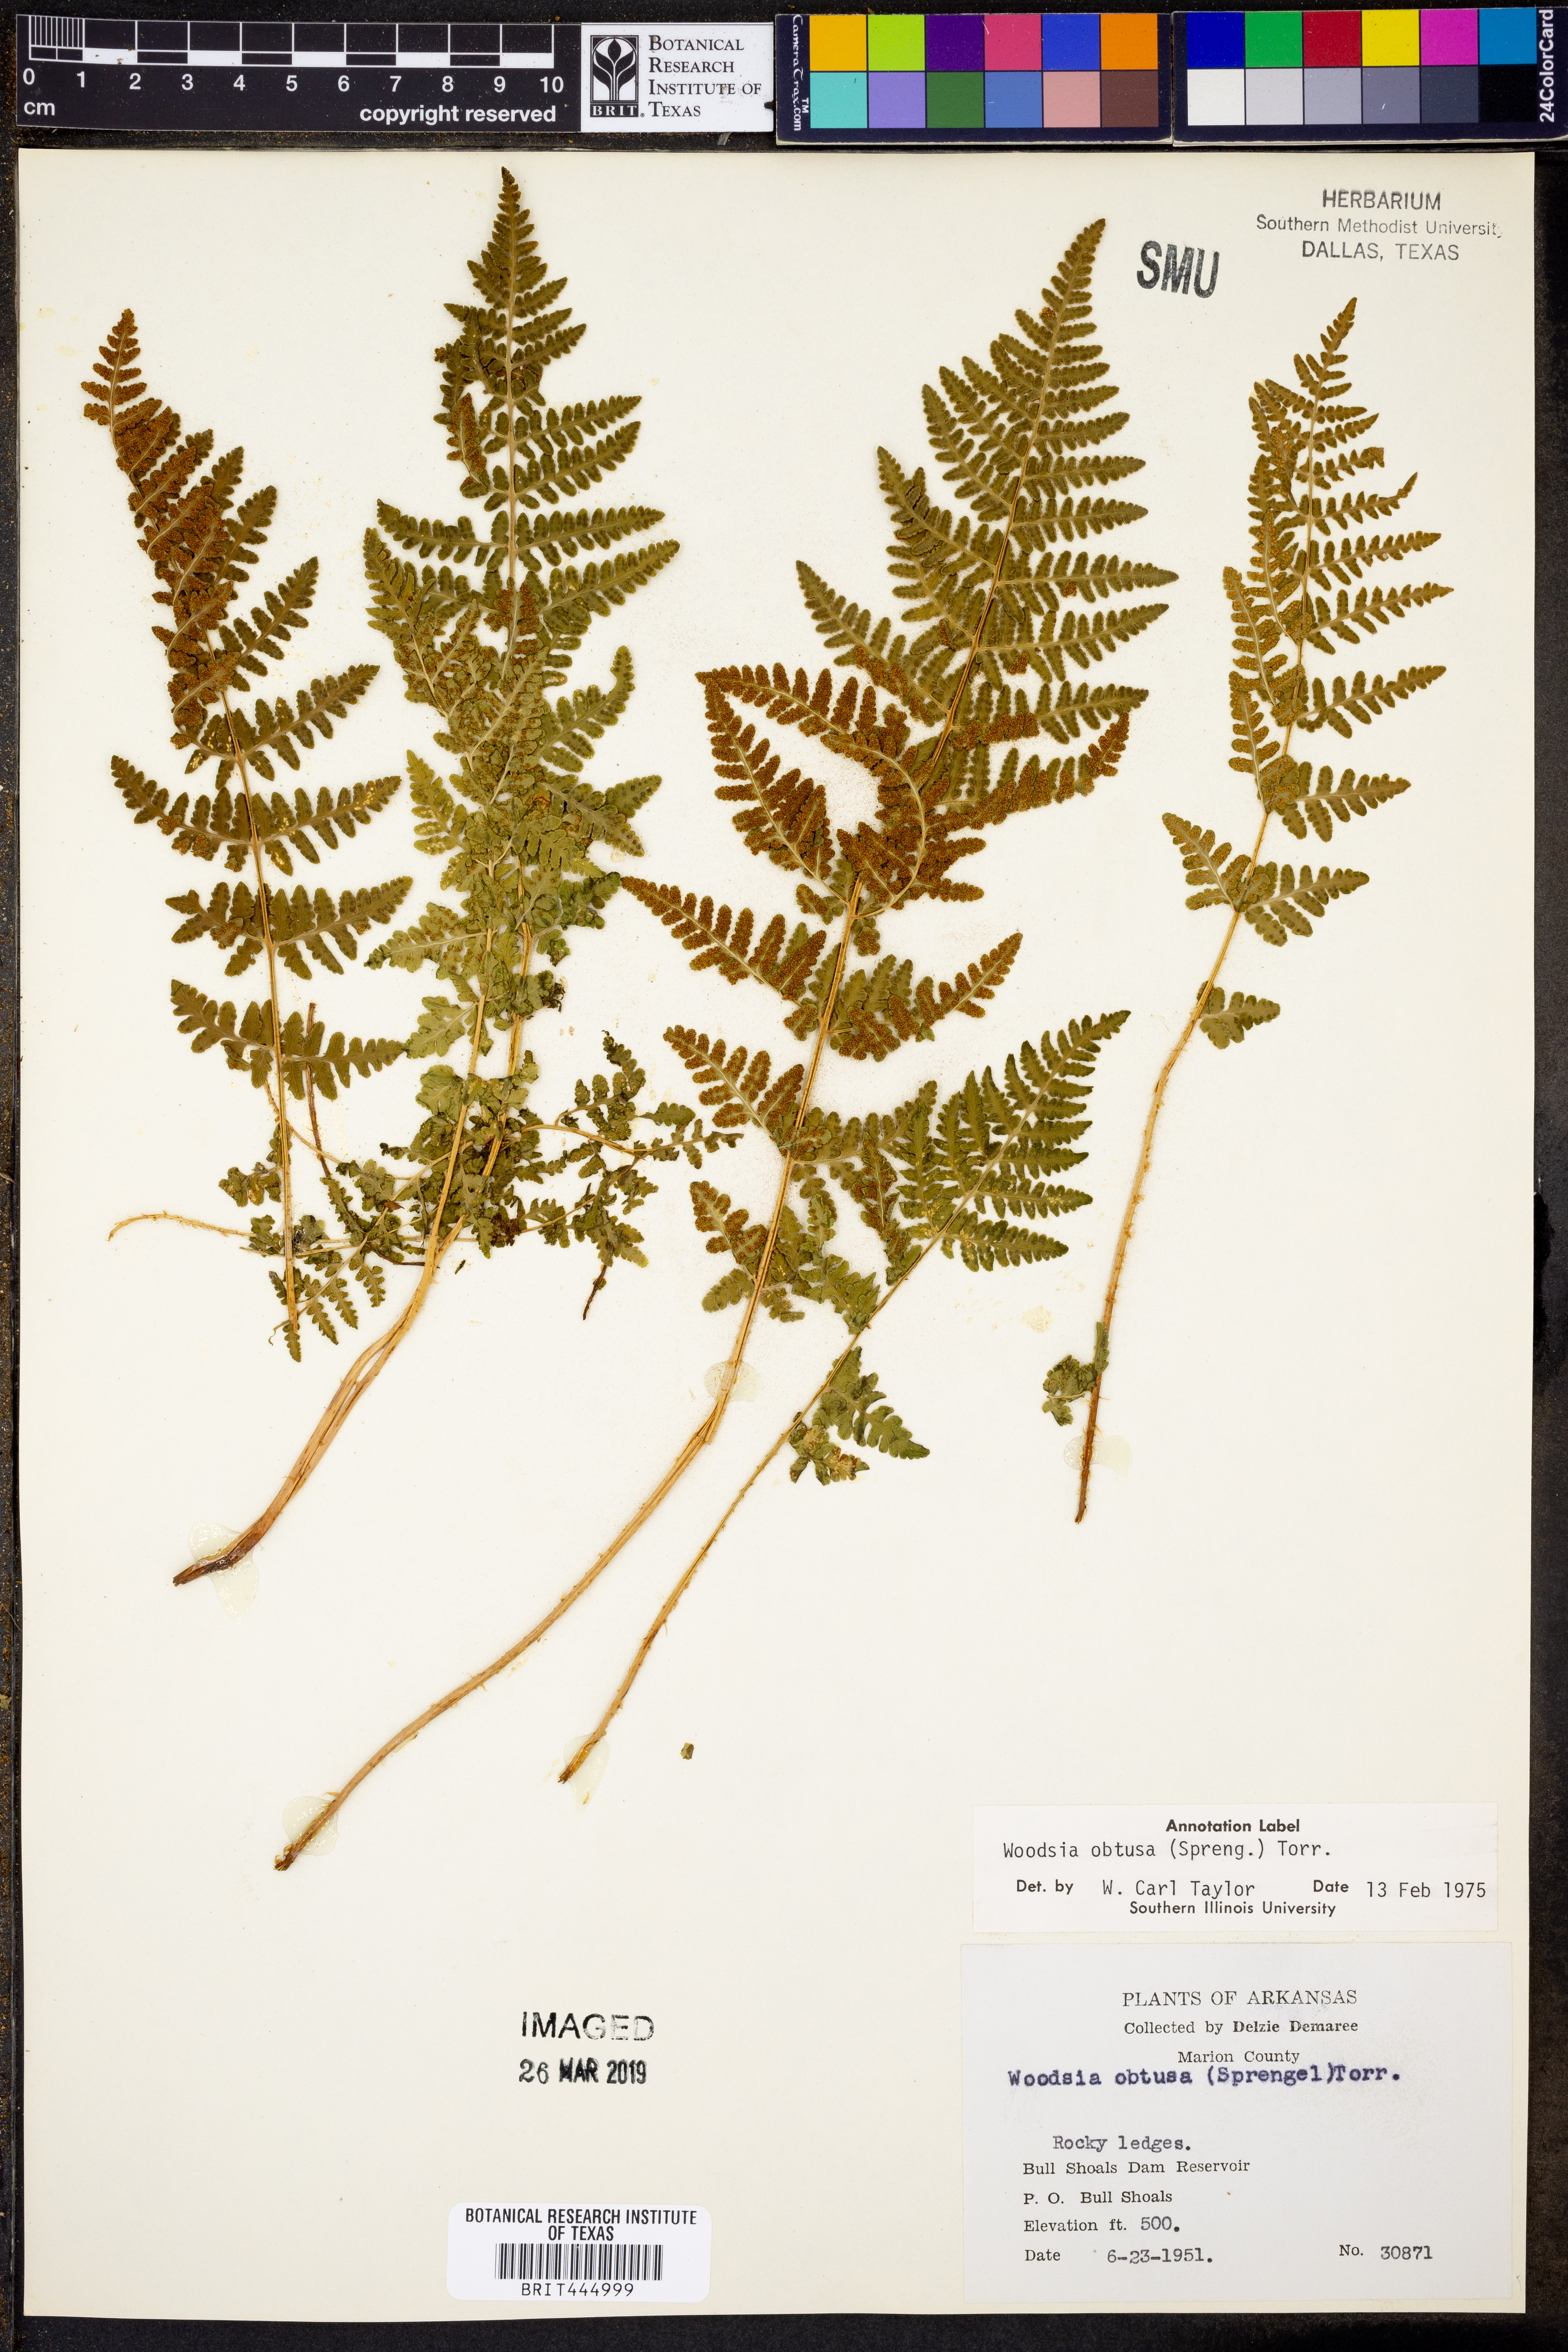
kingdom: Plantae
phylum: Tracheophyta
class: Polypodiopsida
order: Polypodiales
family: Woodsiaceae
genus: Physematium
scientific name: Physematium obtusum
